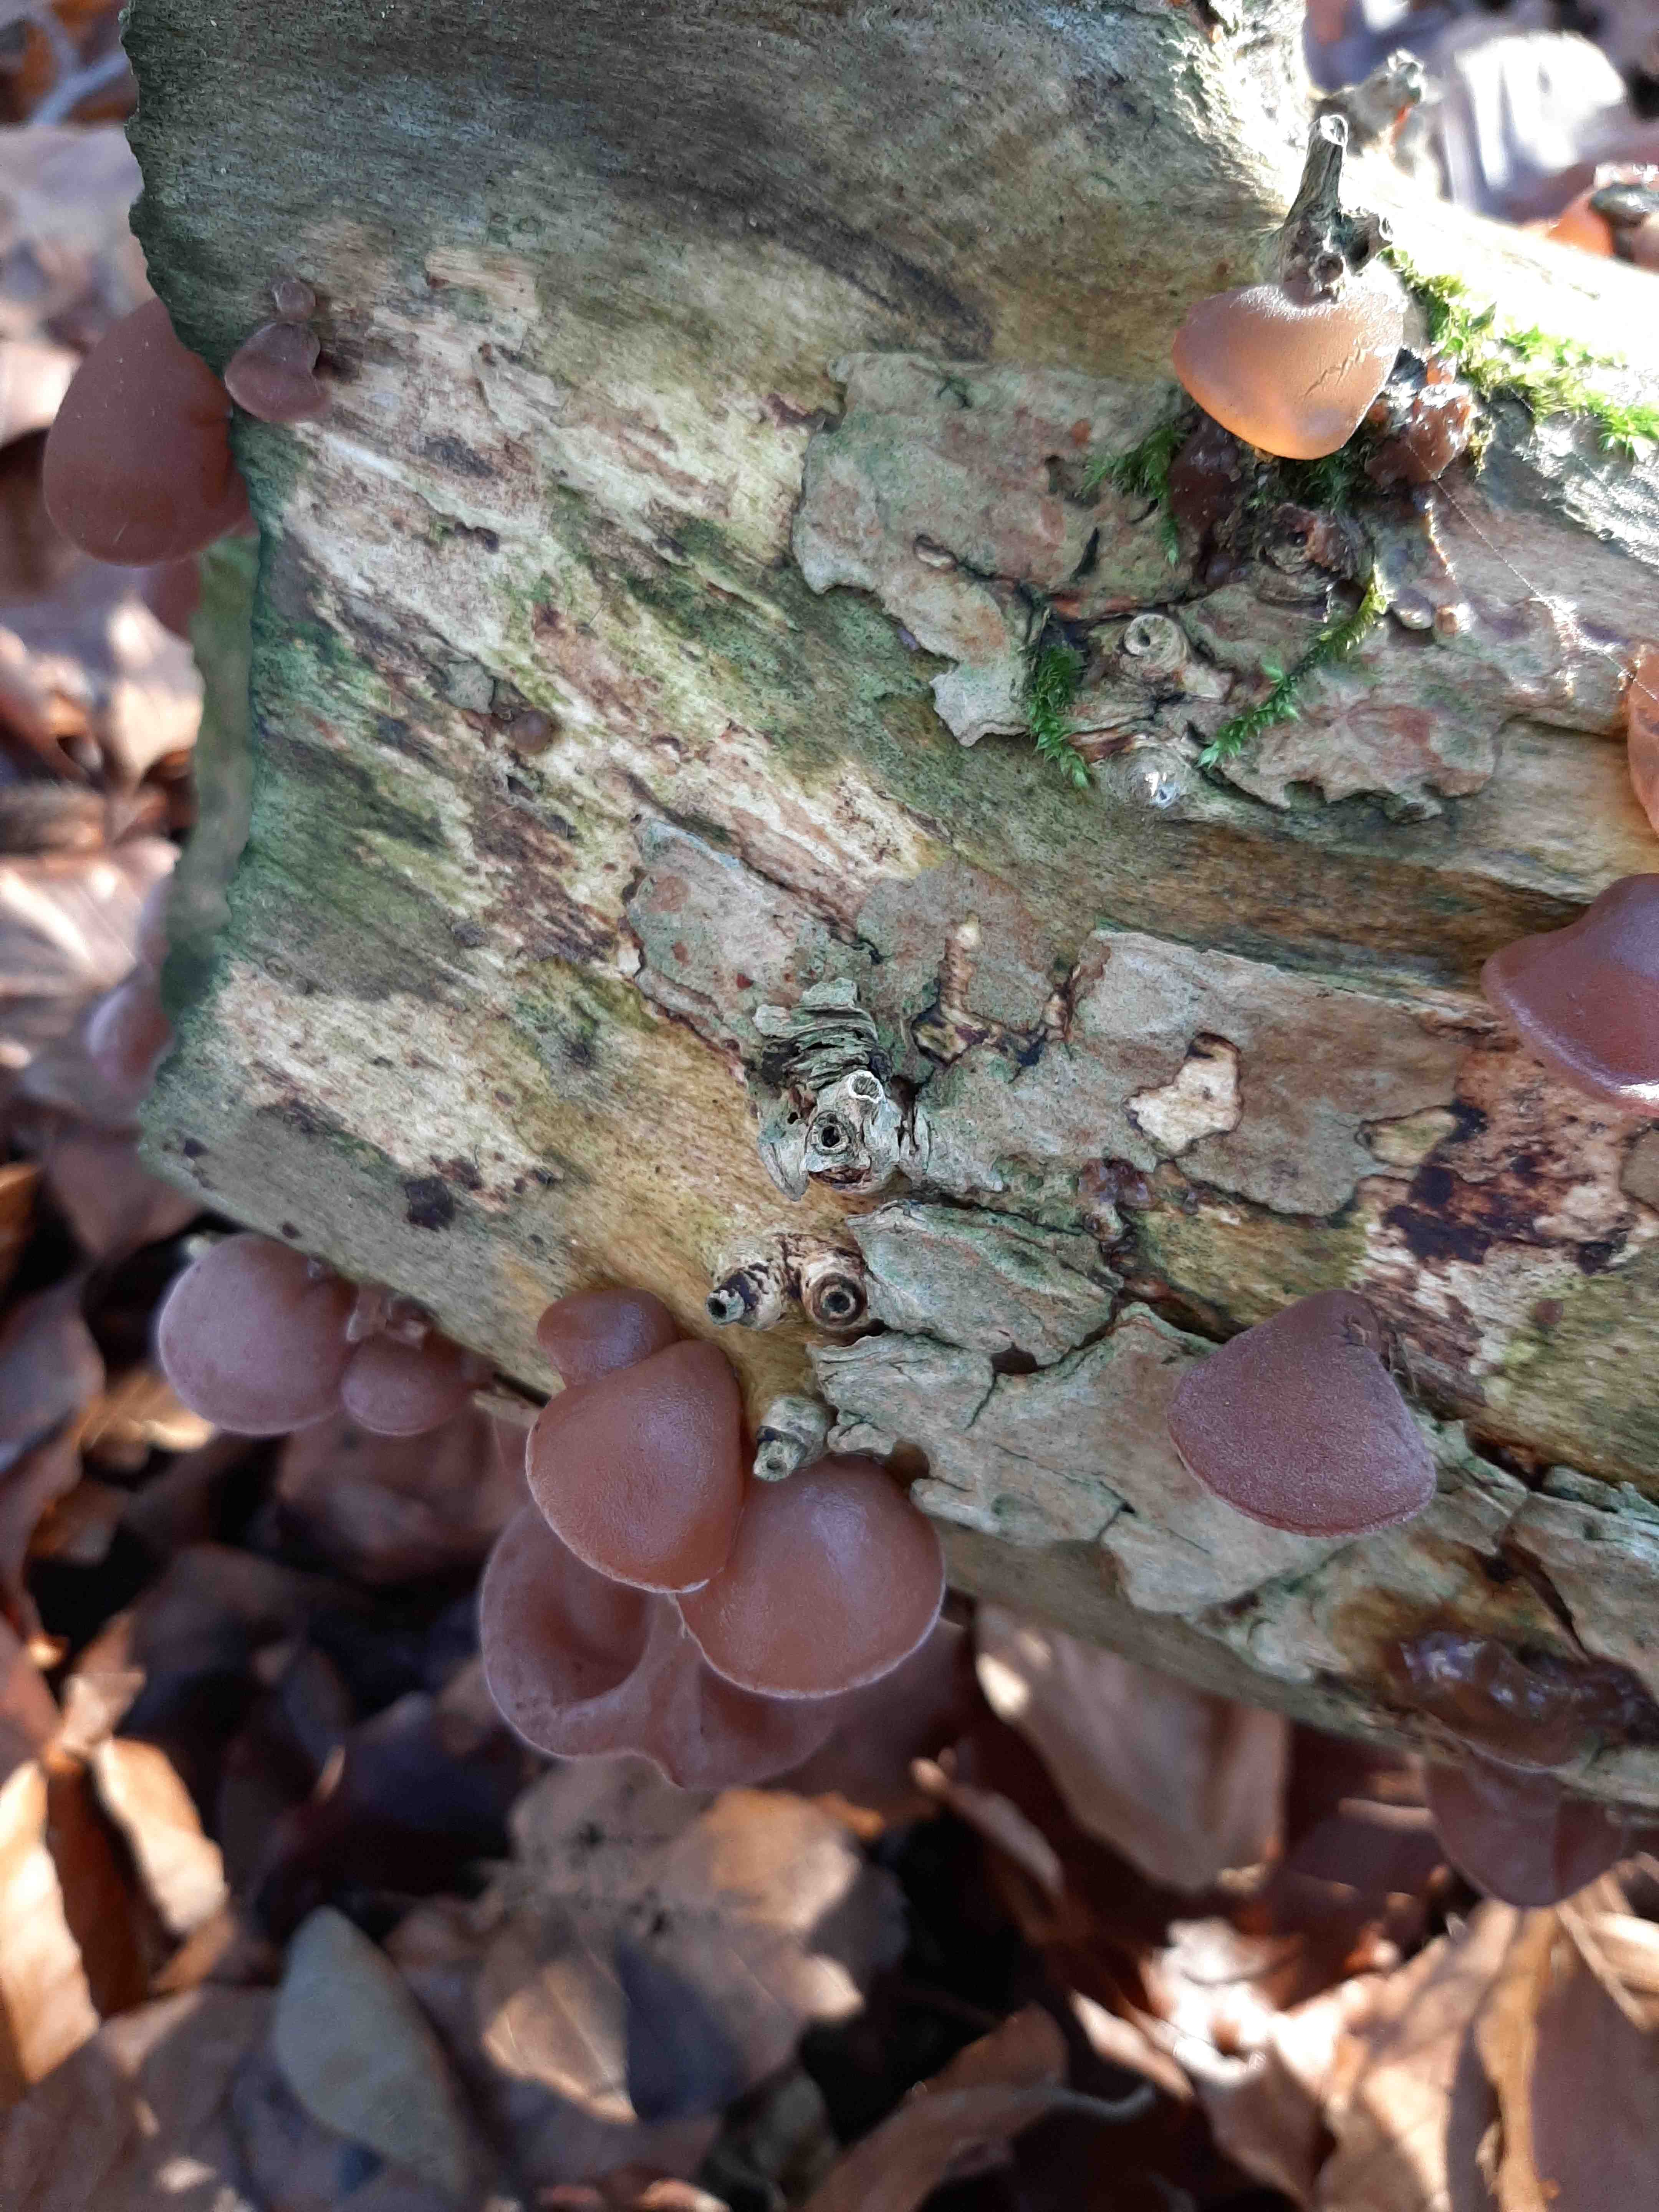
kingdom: Fungi
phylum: Basidiomycota
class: Agaricomycetes
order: Auriculariales
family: Auriculariaceae
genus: Auricularia
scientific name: Auricularia auricula-judae
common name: almindelig judasøre
